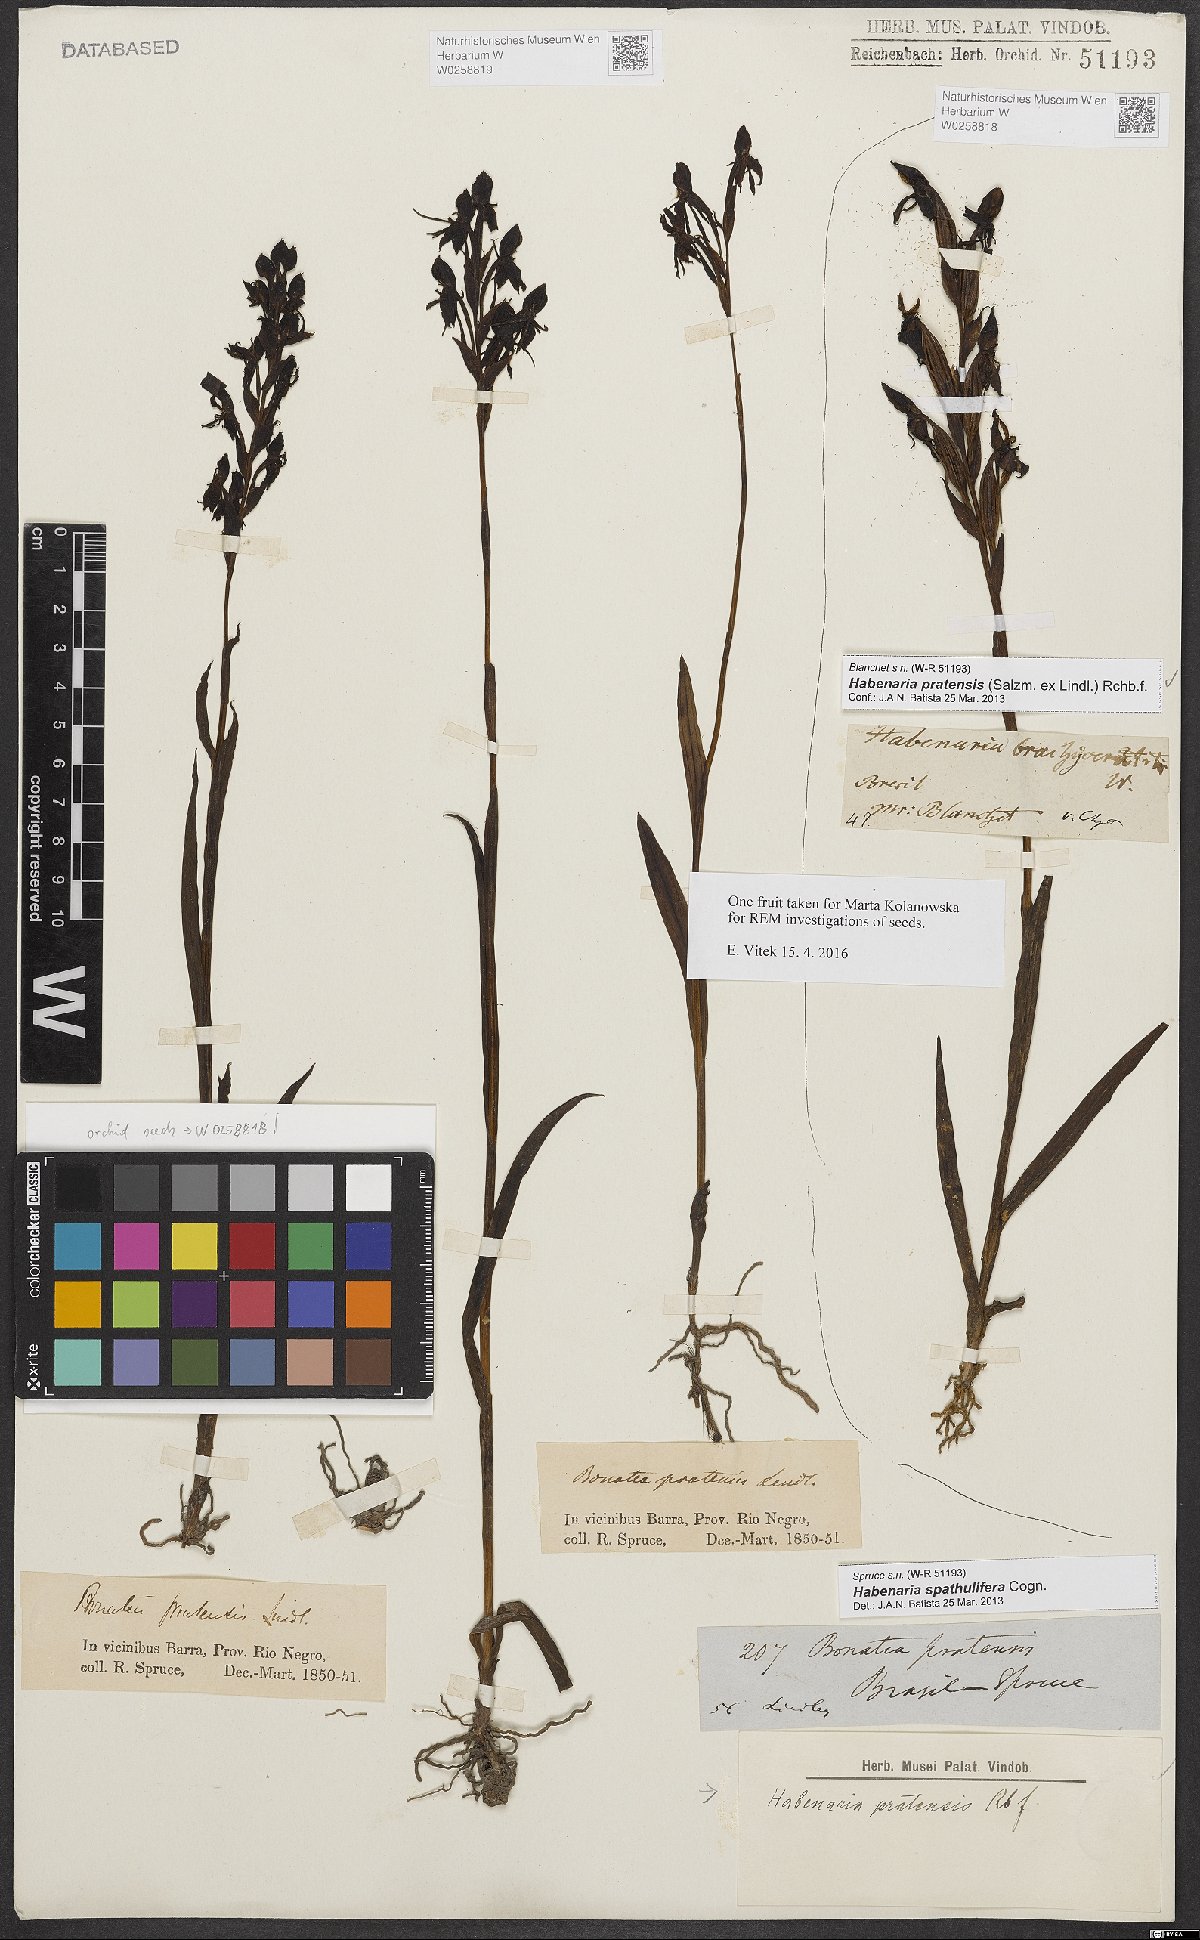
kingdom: Plantae
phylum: Tracheophyta
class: Liliopsida
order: Asparagales
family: Orchidaceae
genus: Habenaria
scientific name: Habenaria spathulifera
